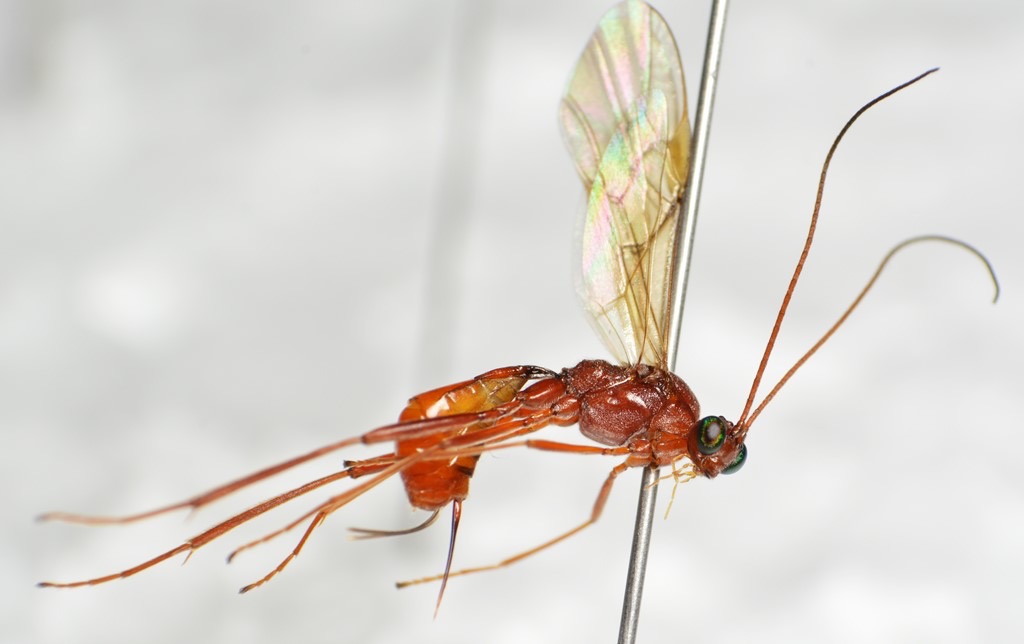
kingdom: Animalia
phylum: Arthropoda
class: Insecta
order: Hymenoptera
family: Braconidae
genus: Zele
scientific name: Zele deceptor
